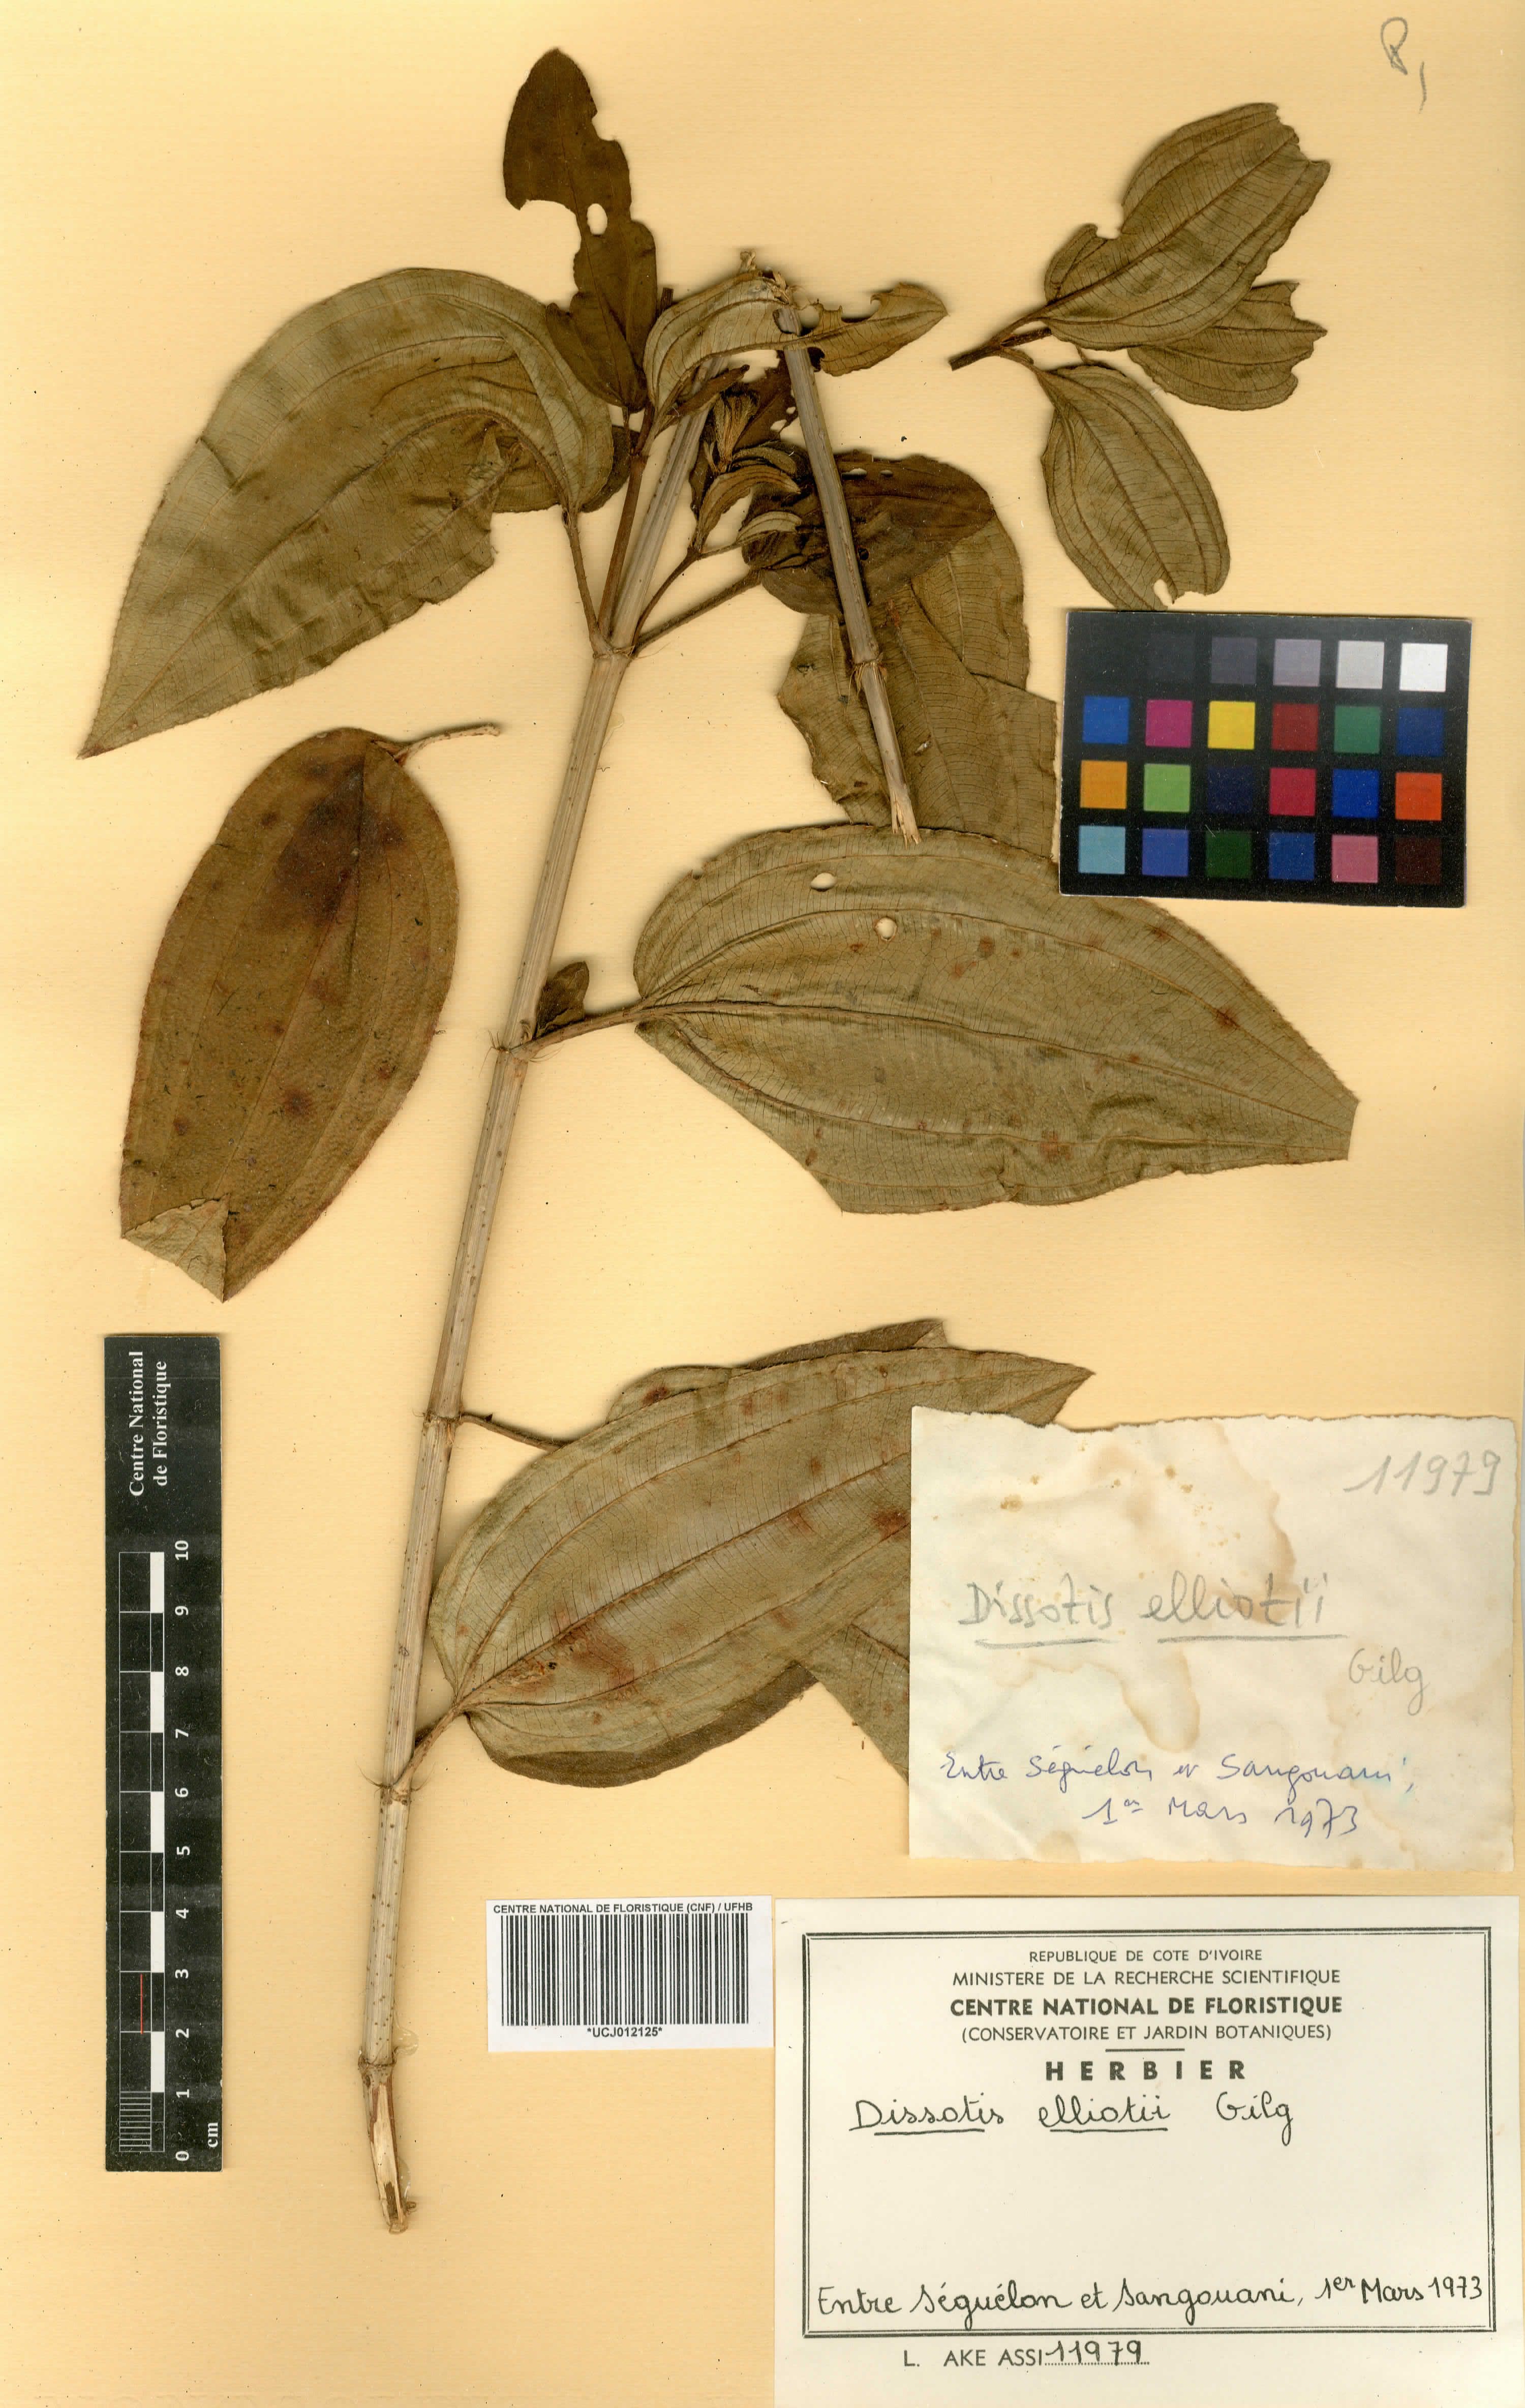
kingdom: Plantae
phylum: Tracheophyta
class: Magnoliopsida
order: Myrtales
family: Melastomataceae
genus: Rosettea
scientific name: Rosettea elliotii
